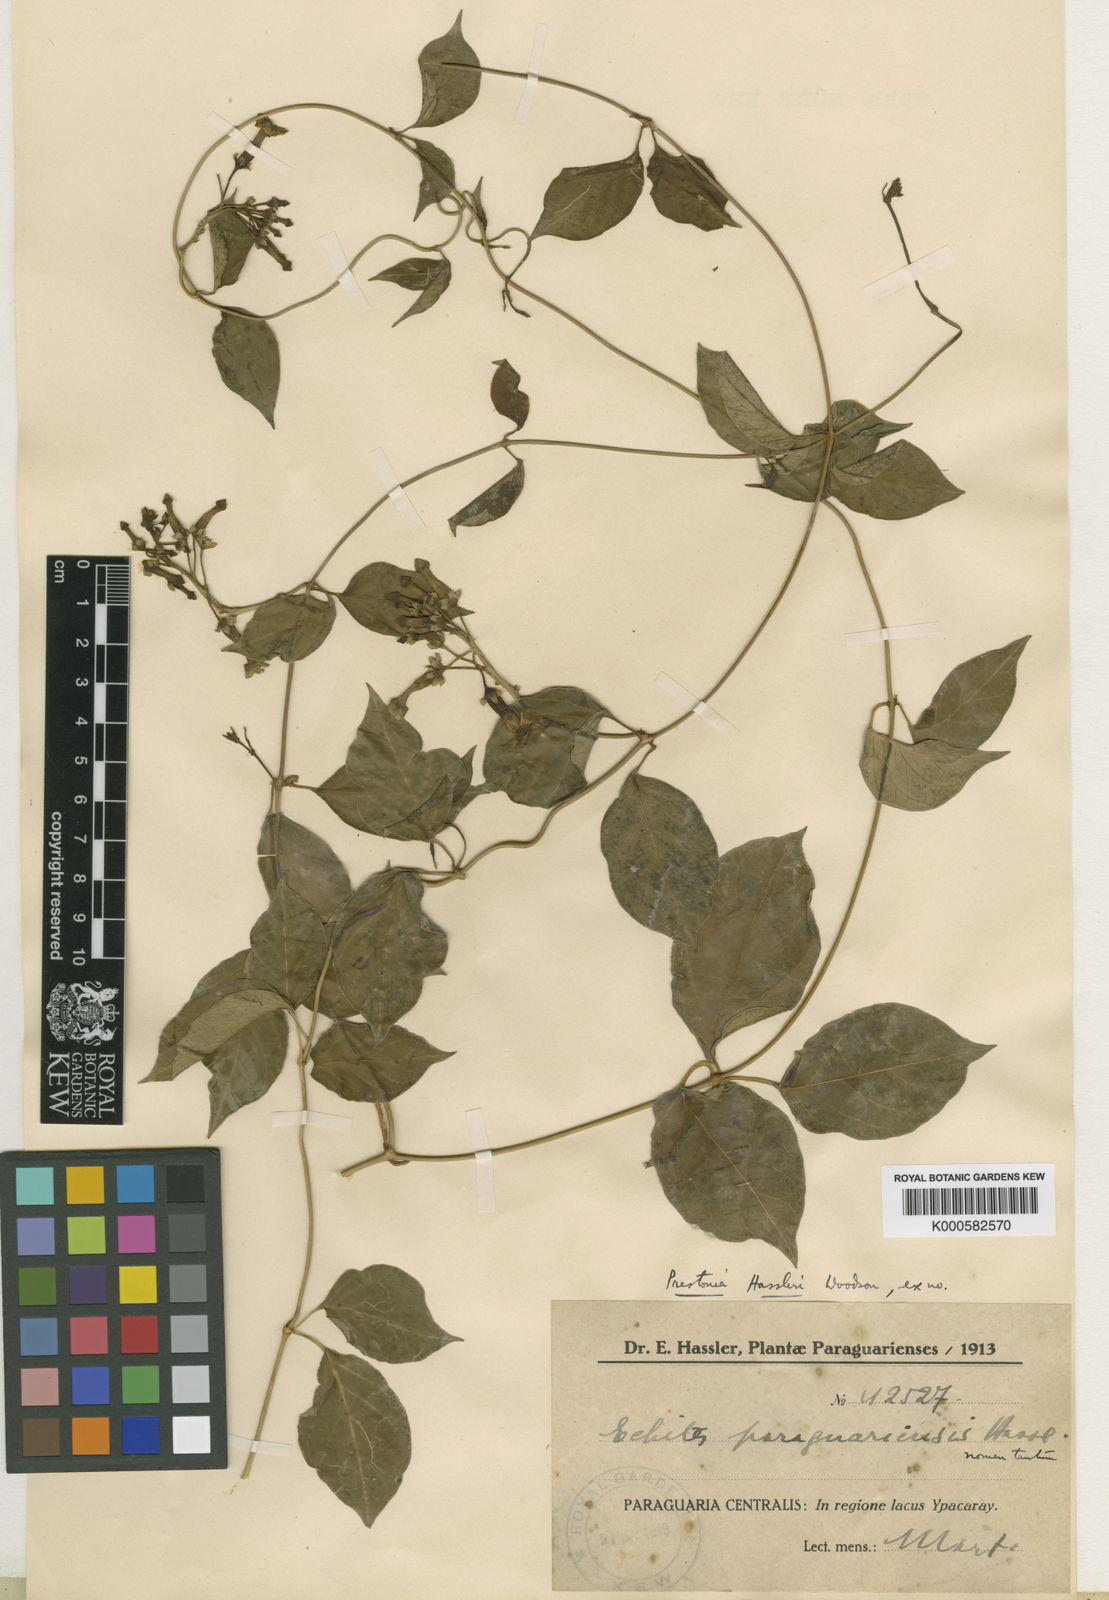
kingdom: Plantae
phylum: Tracheophyta
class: Magnoliopsida
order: Gentianales
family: Apocynaceae
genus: Prestonia
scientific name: Prestonia cyaniphylla
